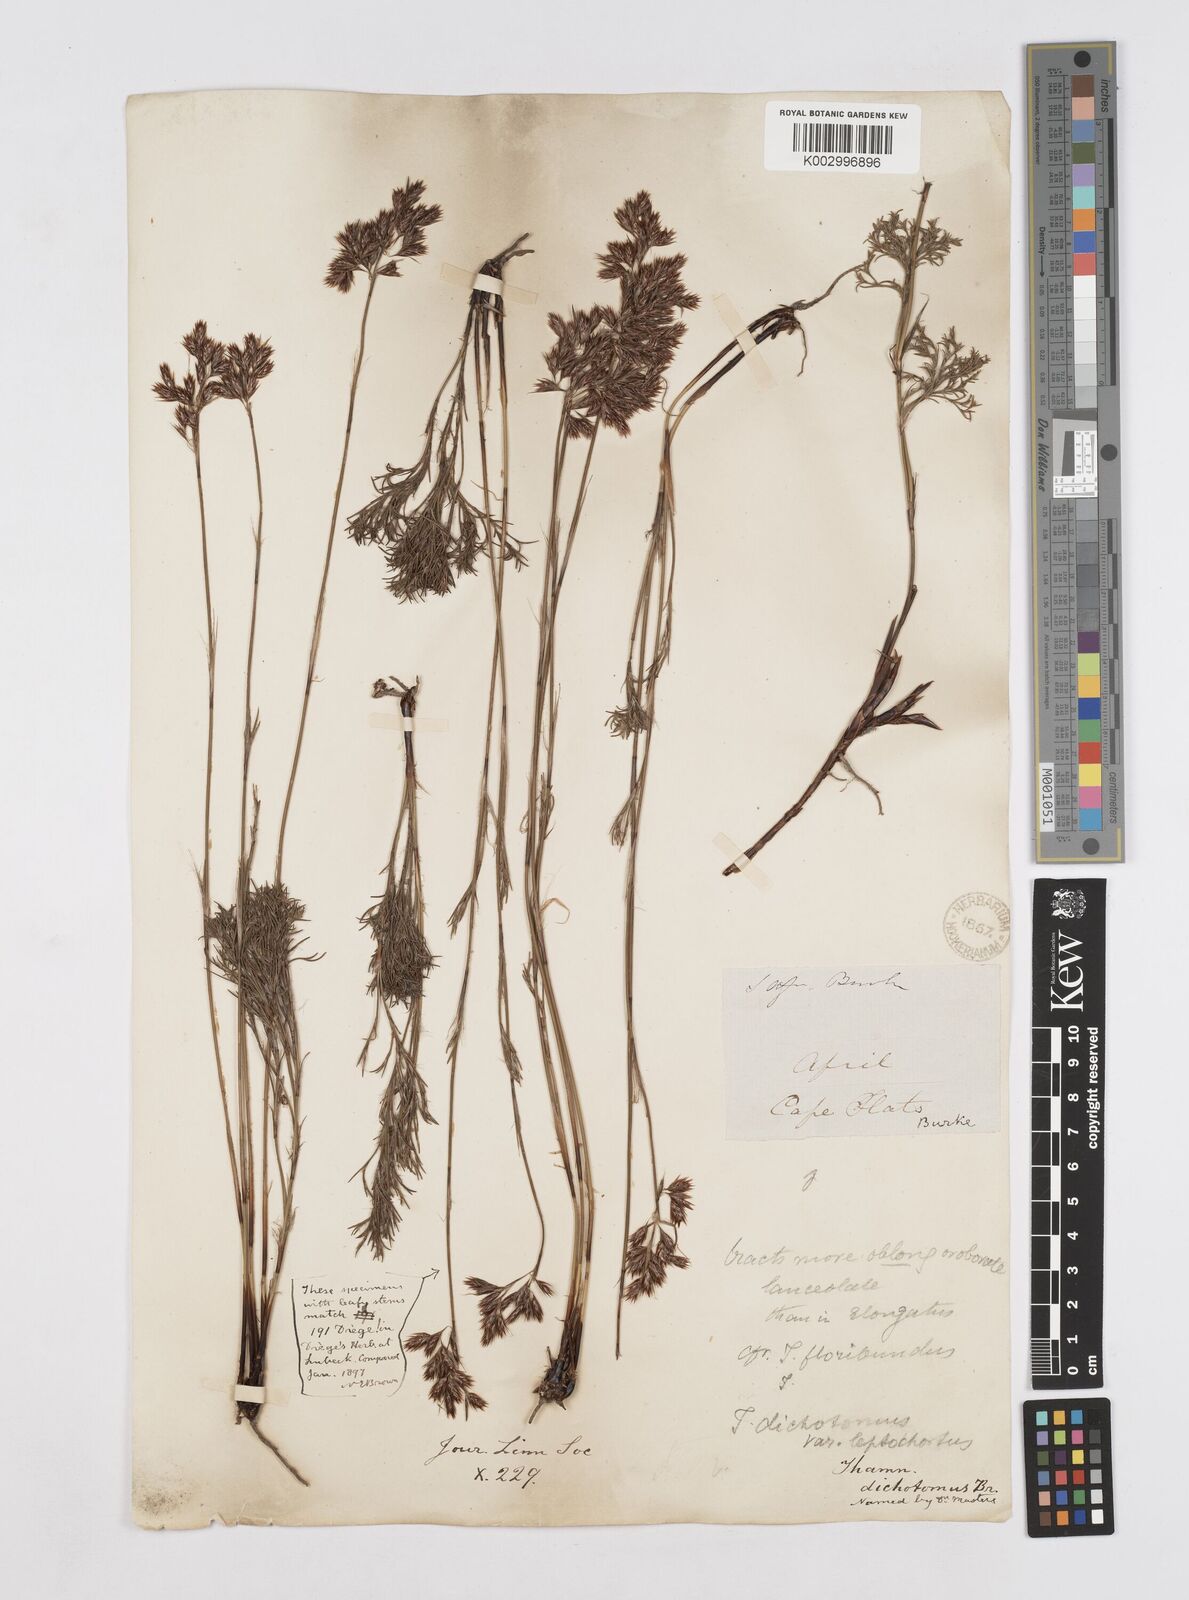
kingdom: Plantae
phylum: Tracheophyta
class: Liliopsida
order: Poales
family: Restionaceae
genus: Thamnochortus
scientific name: Thamnochortus lucens
